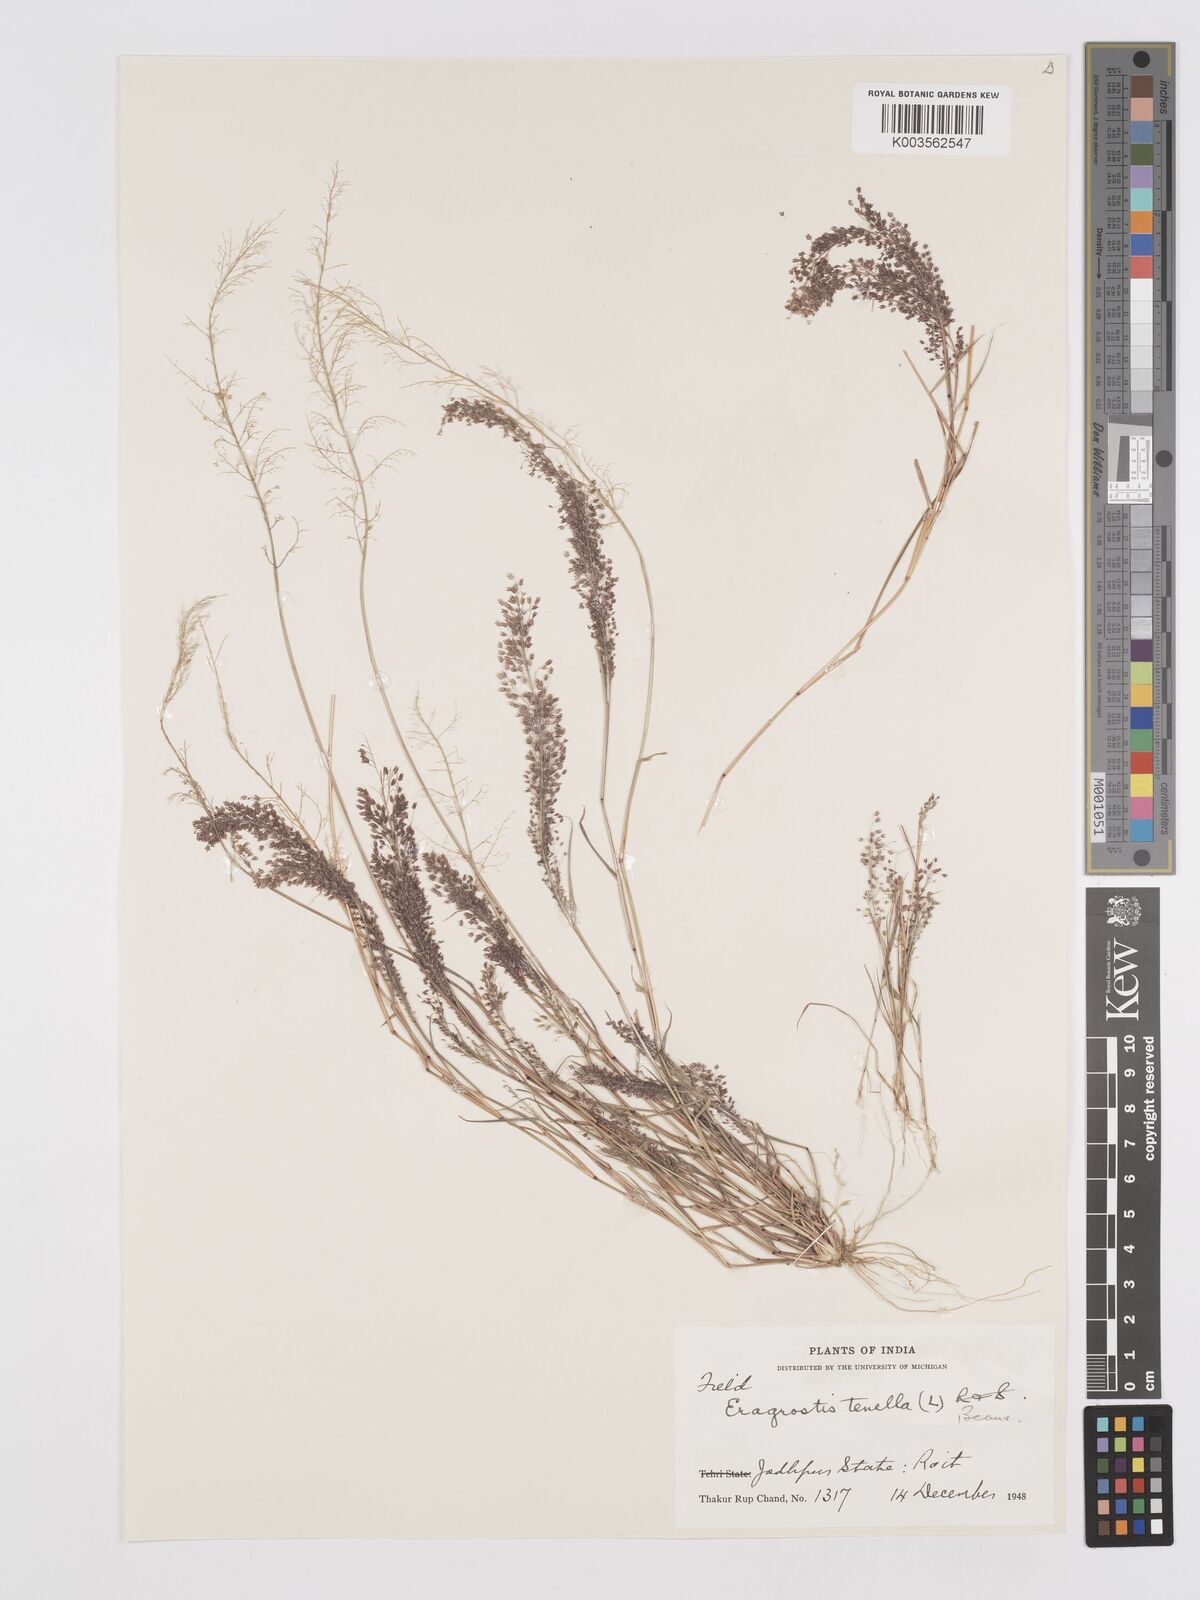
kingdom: Plantae
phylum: Tracheophyta
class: Liliopsida
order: Poales
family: Poaceae
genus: Eragrostis
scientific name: Eragrostis tenella
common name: Japanese lovegrass
